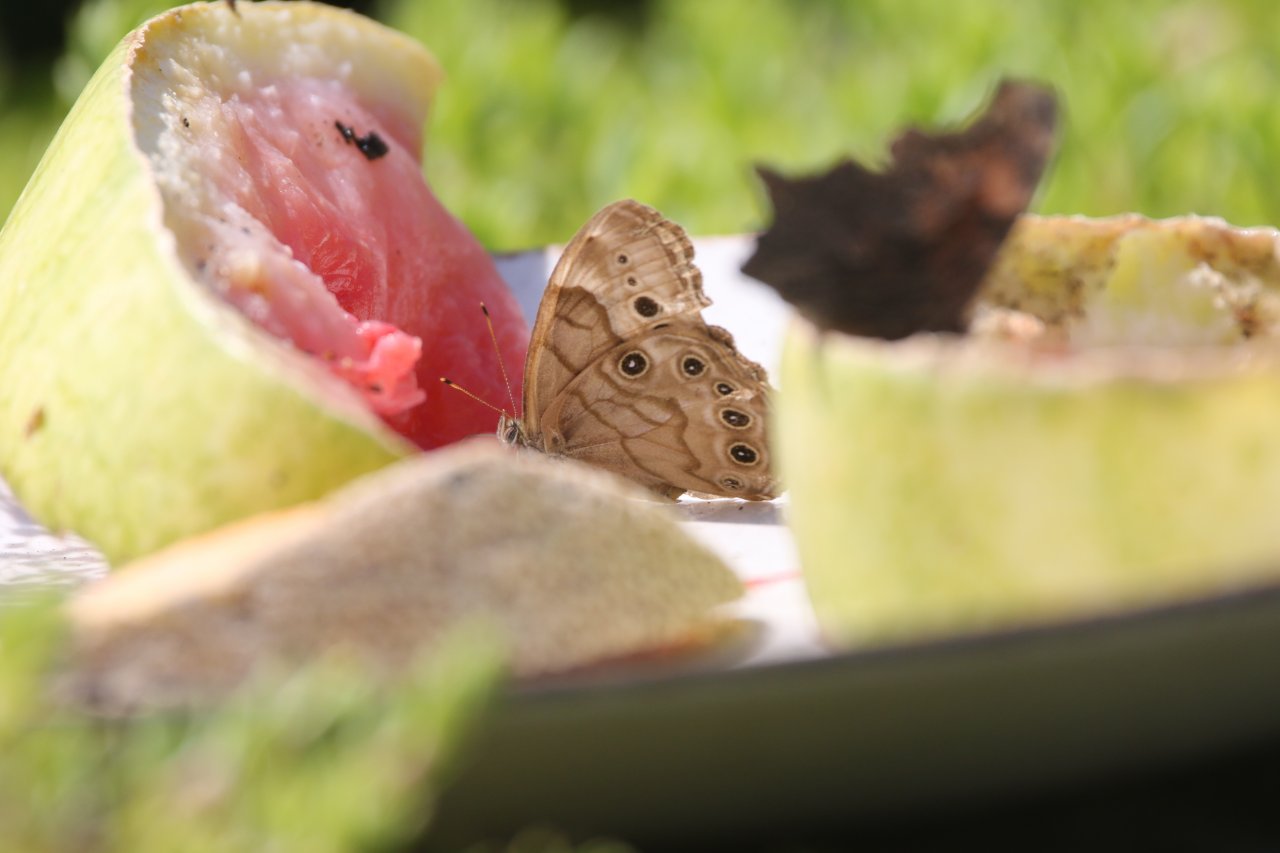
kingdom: Animalia
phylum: Arthropoda
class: Insecta
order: Lepidoptera
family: Nymphalidae
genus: Lethe
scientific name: Lethe anthedon
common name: Northern Pearly-Eye
